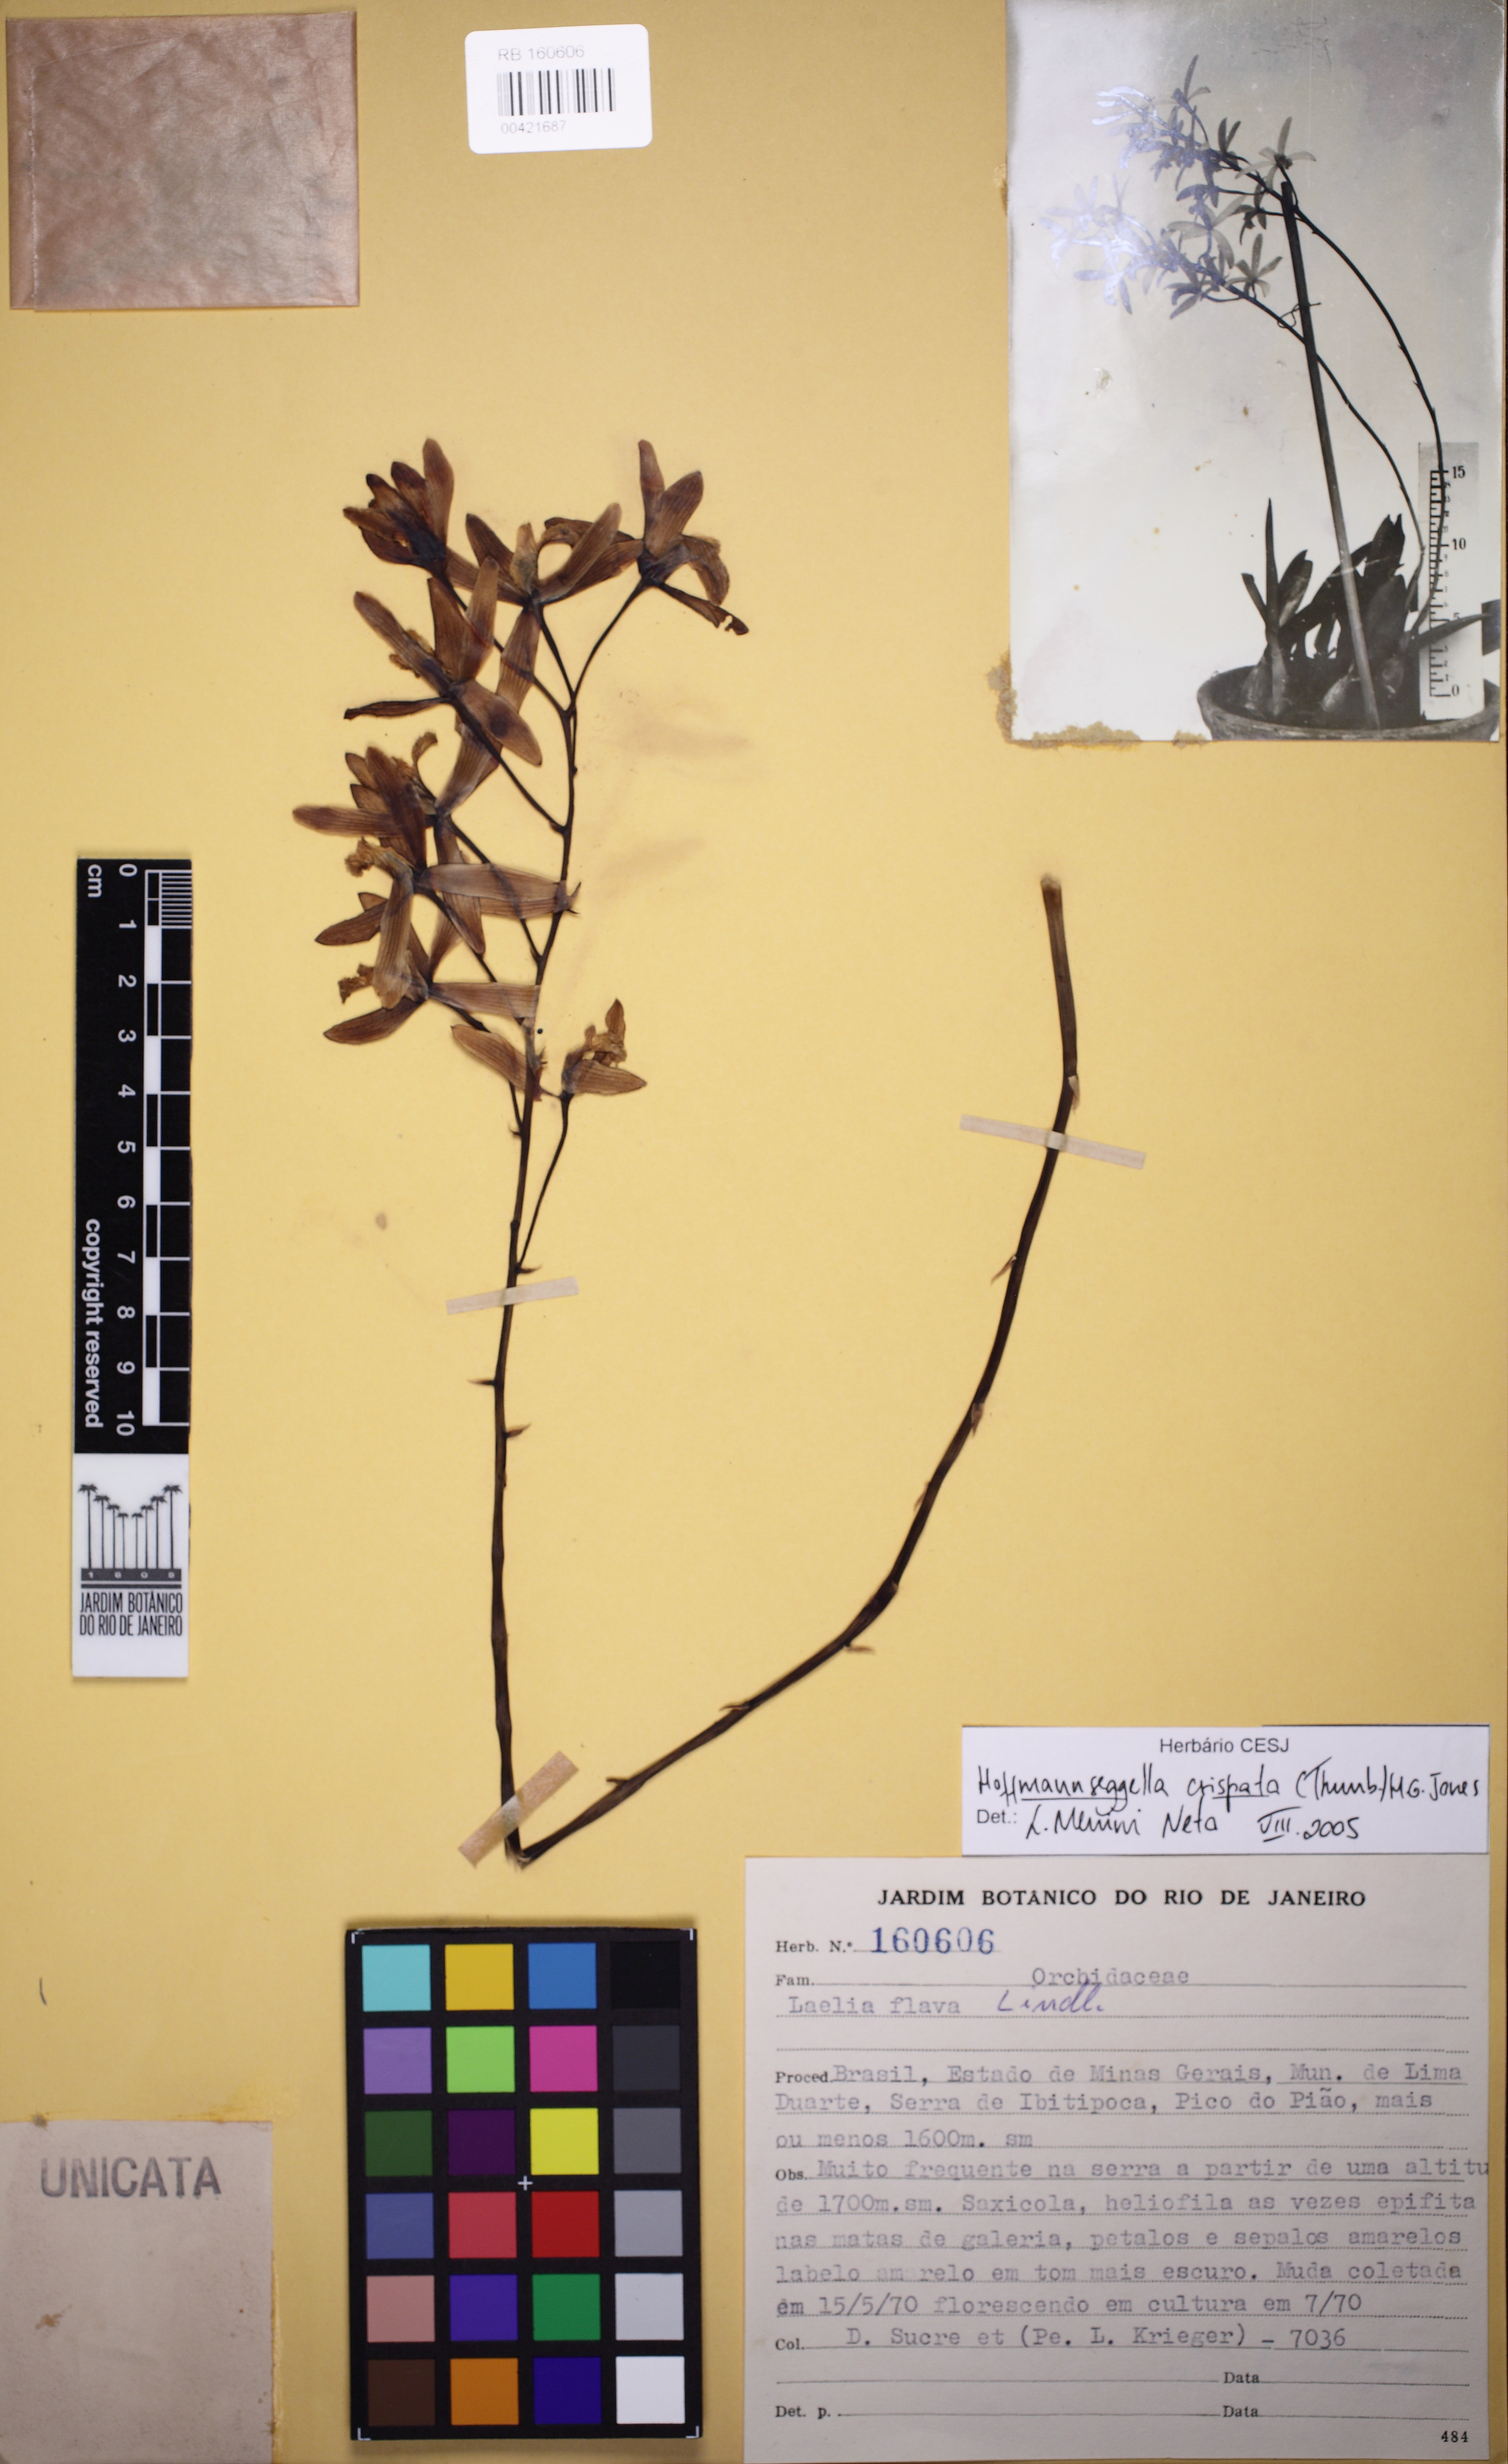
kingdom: Plantae
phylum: Tracheophyta
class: Liliopsida
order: Asparagales
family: Orchidaceae
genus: Cattleya
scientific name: Cattleya crispata
